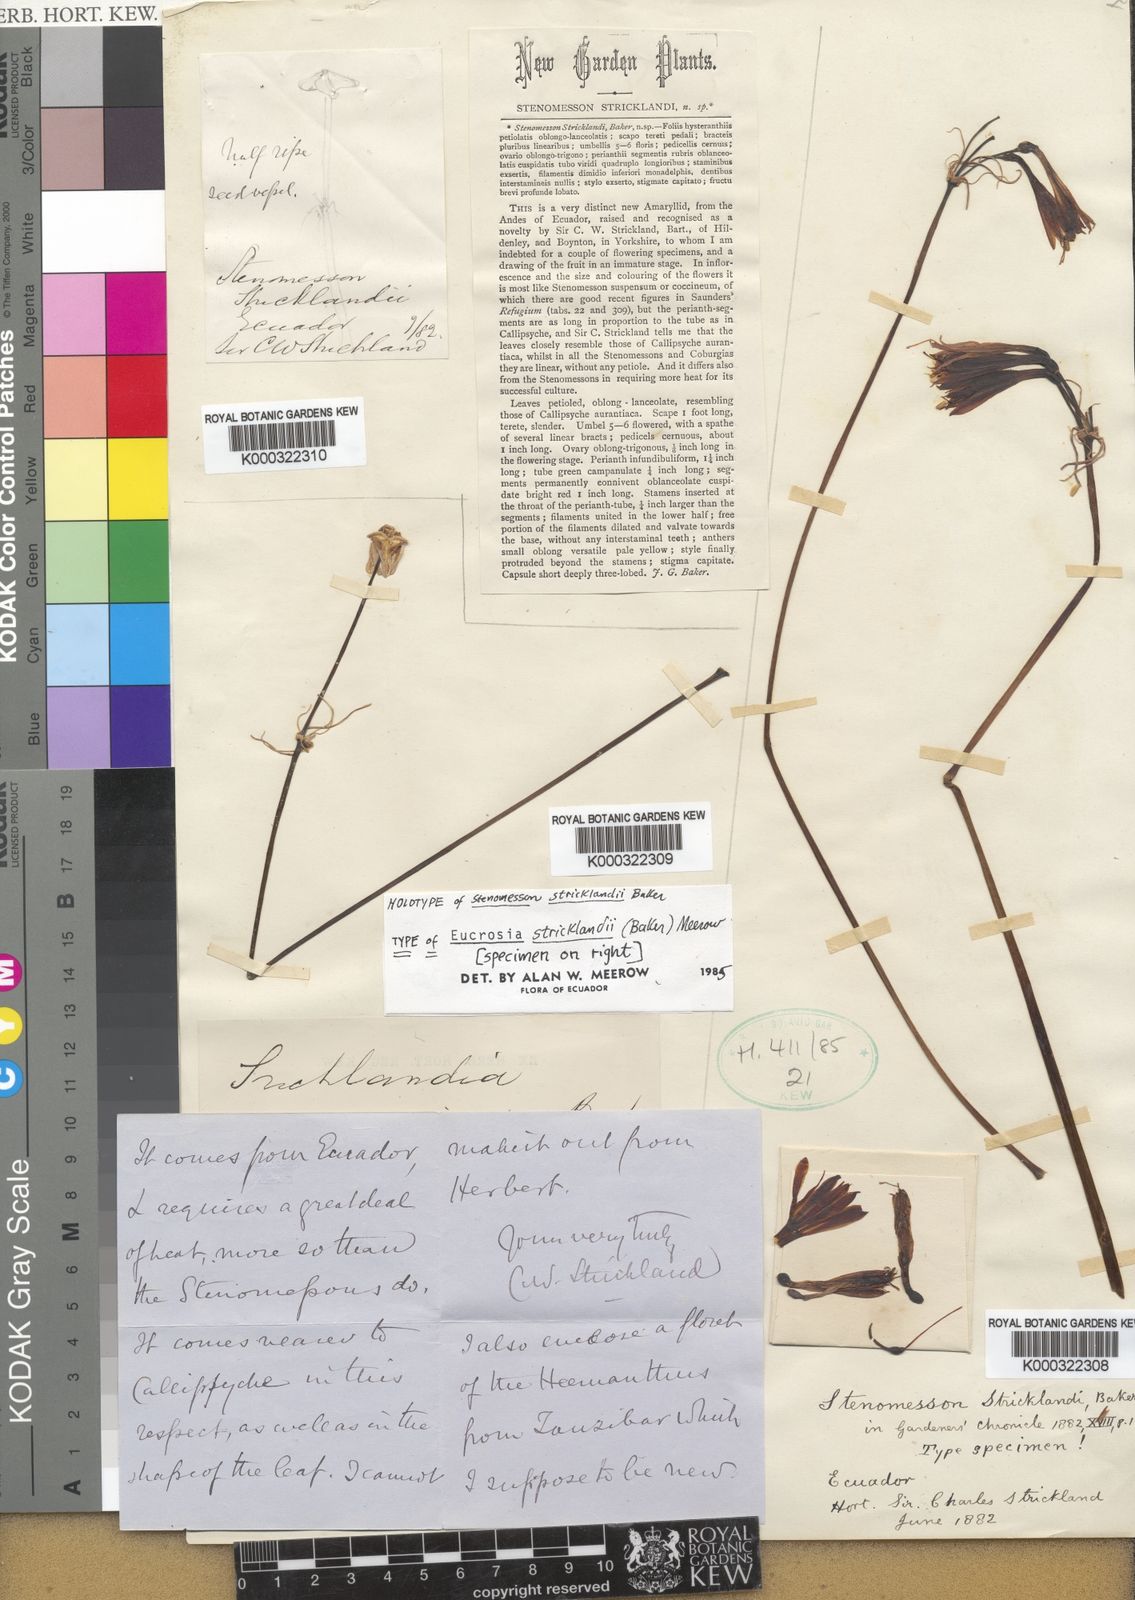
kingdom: Plantae
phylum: Tracheophyta
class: Liliopsida
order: Asparagales
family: Amaryllidaceae
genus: Eucrosia
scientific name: Eucrosia stricklandii
